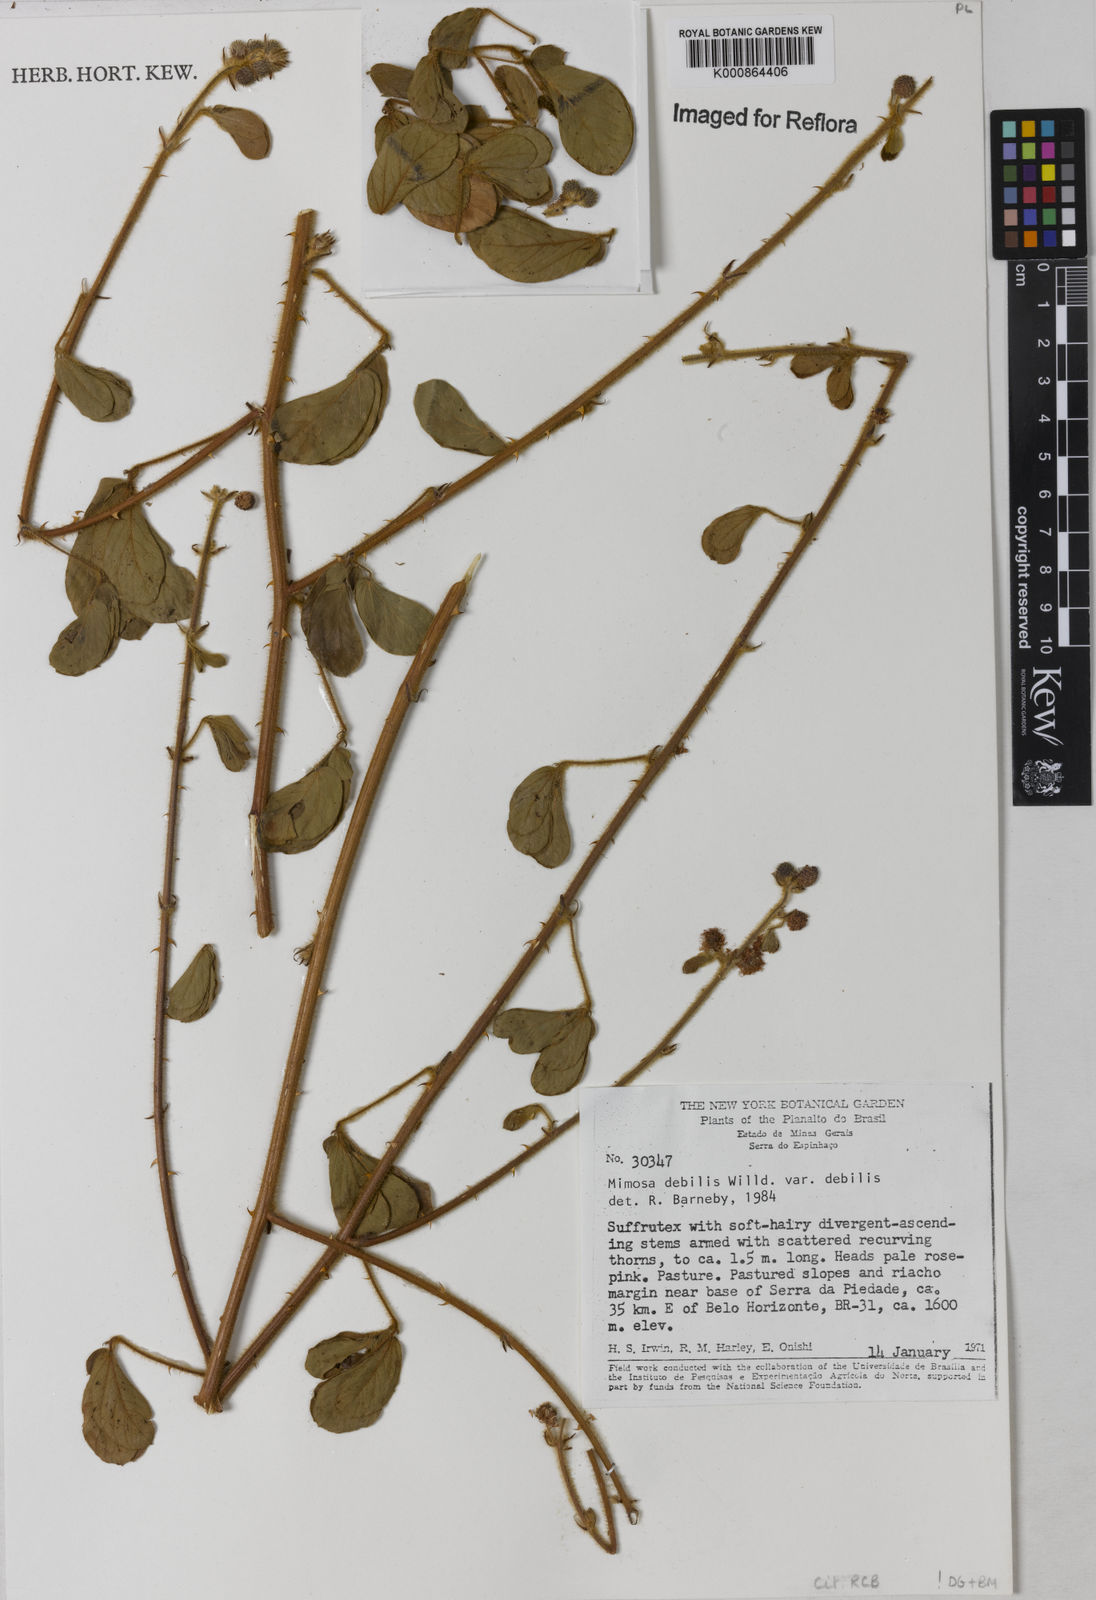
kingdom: Plantae
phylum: Tracheophyta
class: Magnoliopsida
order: Fabales
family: Fabaceae
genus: Mimosa
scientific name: Mimosa debilis
